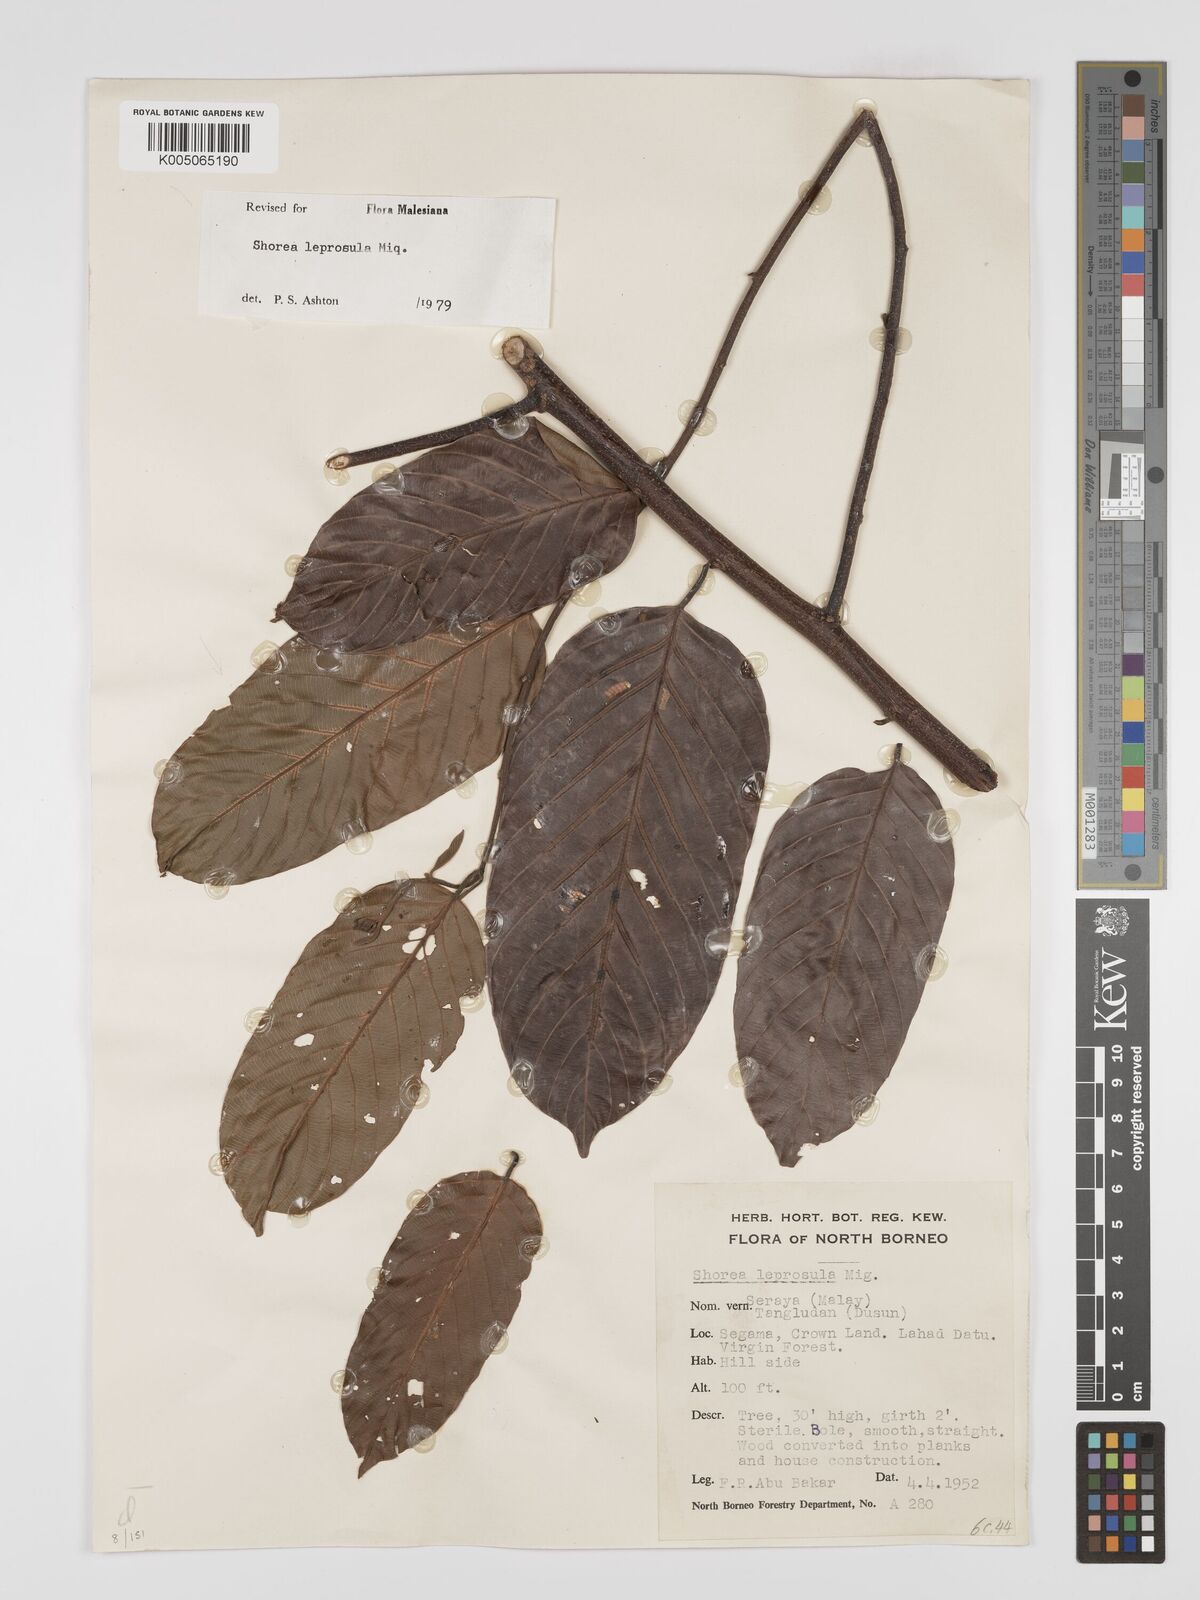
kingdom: Plantae
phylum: Tracheophyta
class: Magnoliopsida
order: Malvales
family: Dipterocarpaceae
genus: Shorea
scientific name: Shorea leprosula
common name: Light red meranti
